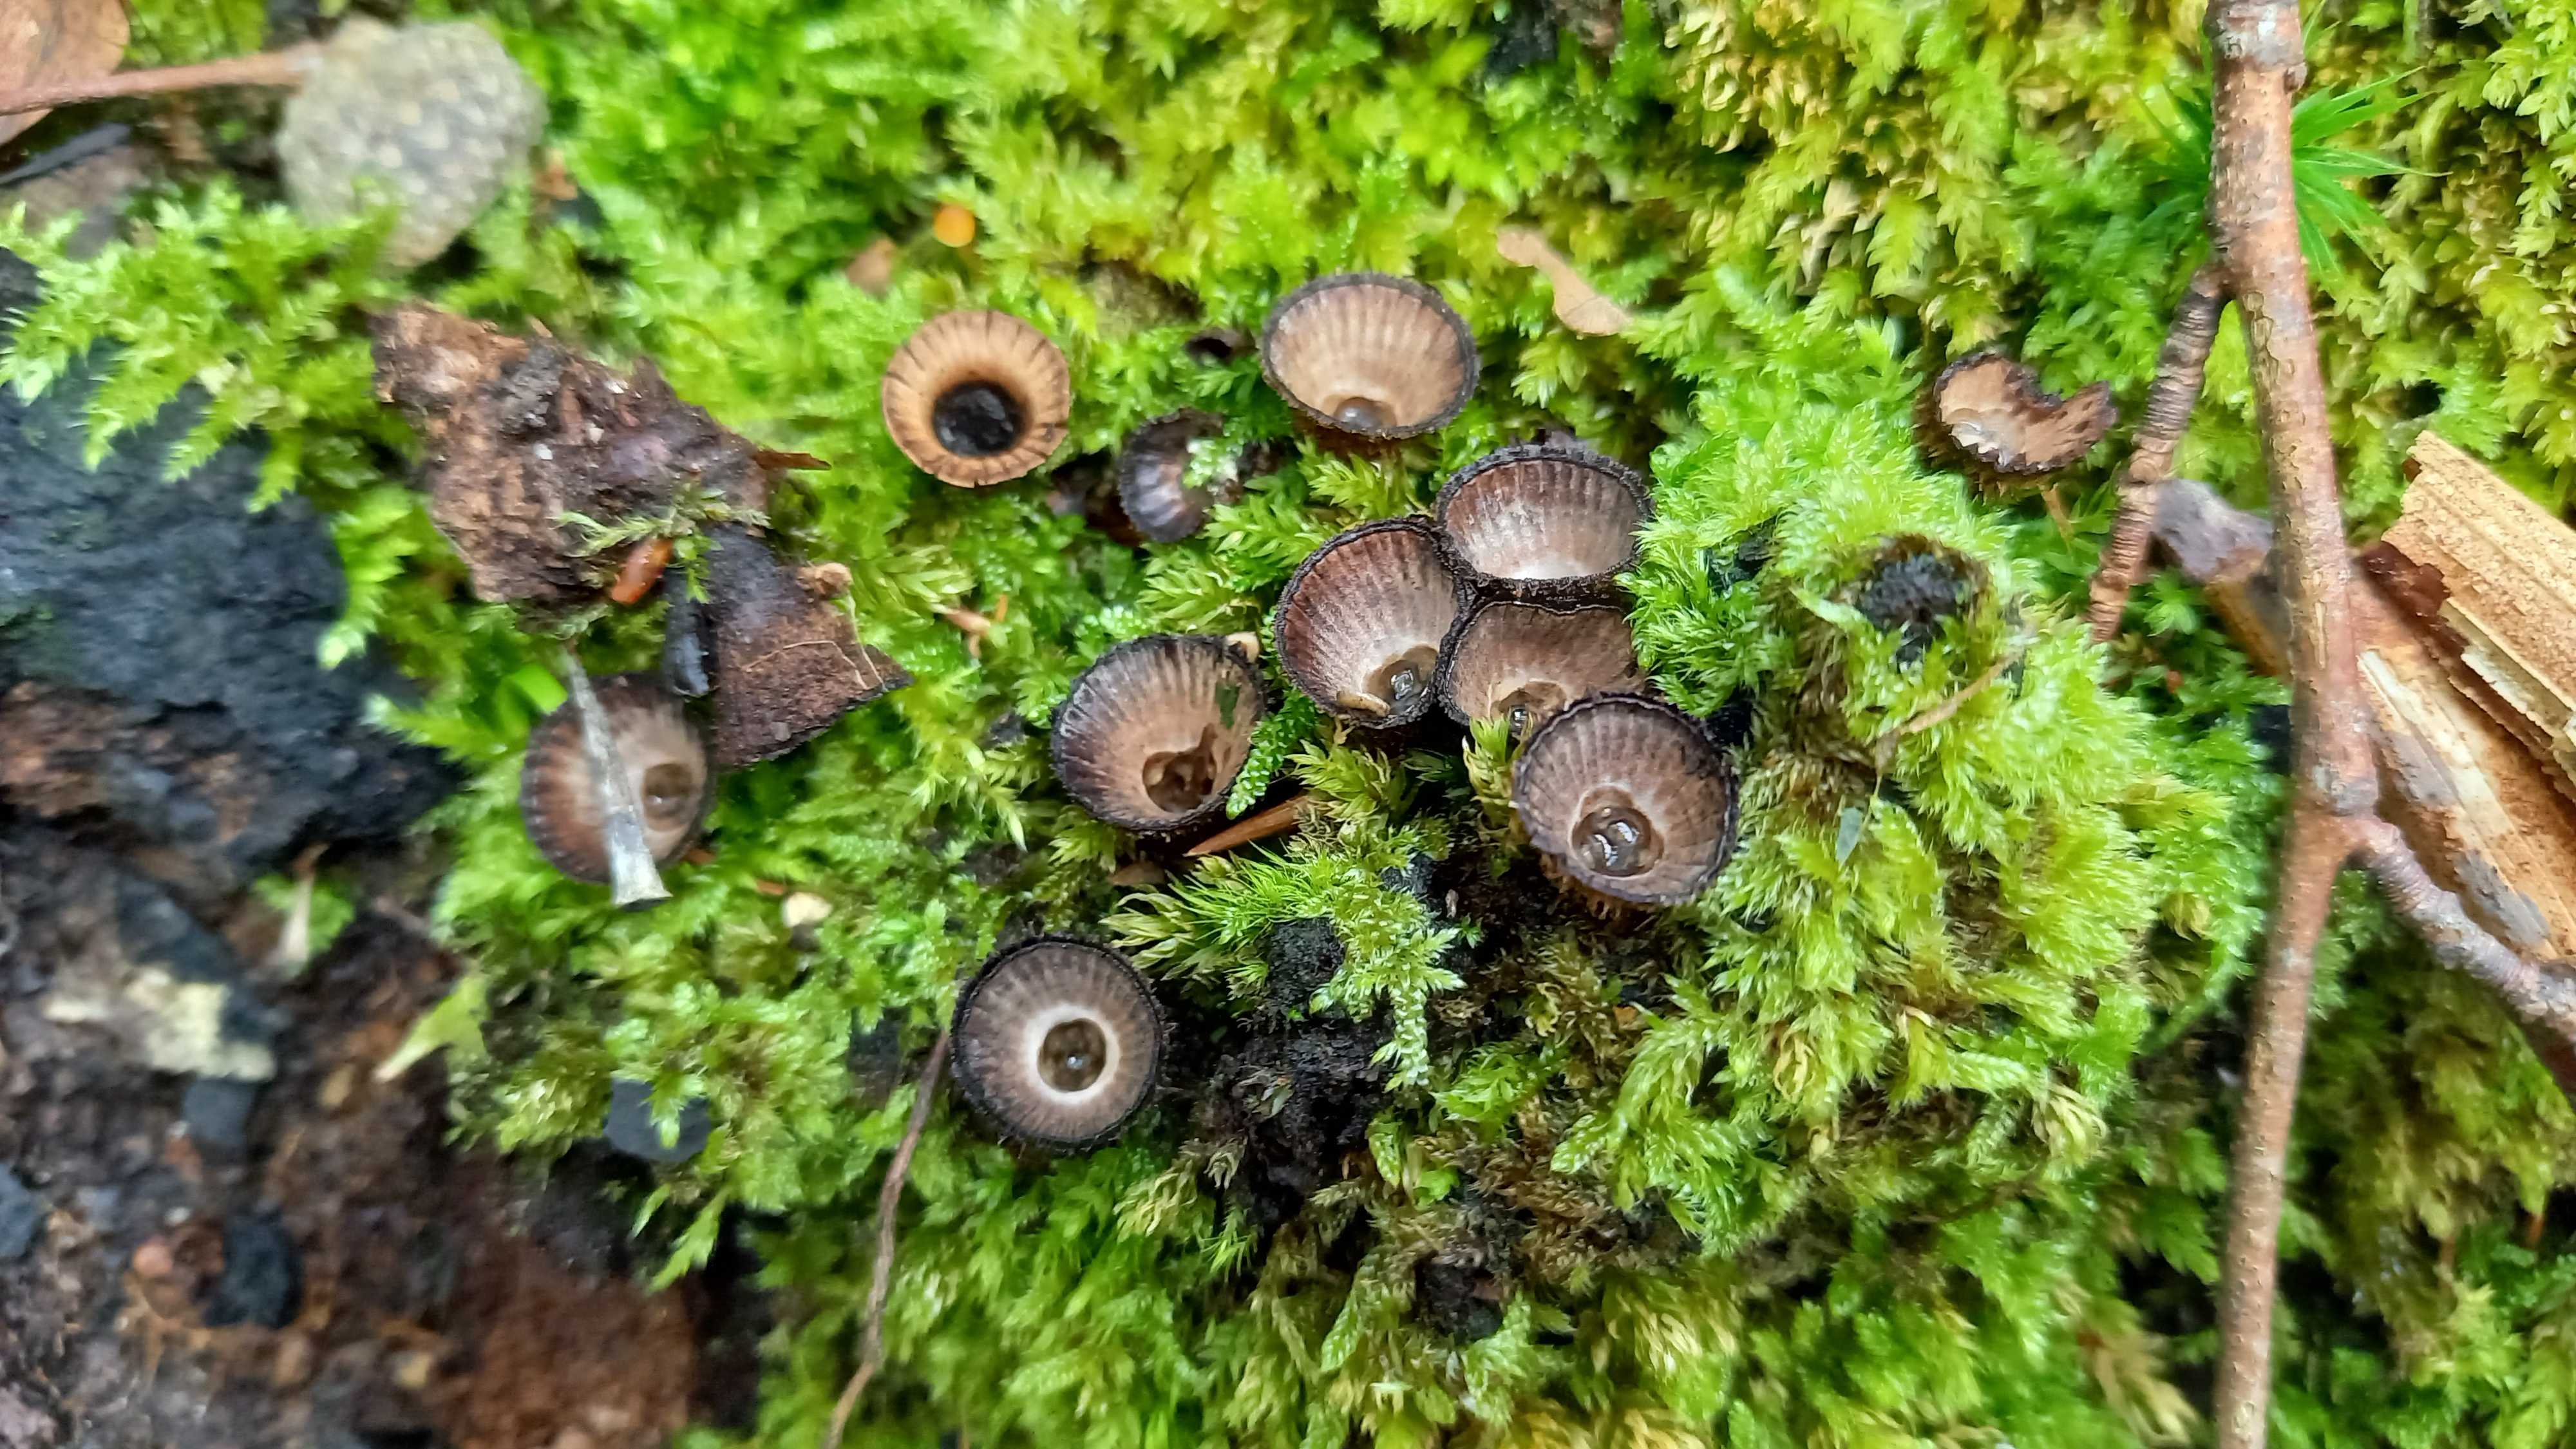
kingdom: Fungi
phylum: Basidiomycota
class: Agaricomycetes
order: Agaricales
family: Agaricaceae
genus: Cyathus
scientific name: Cyathus striatus
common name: stribet redesvamp
